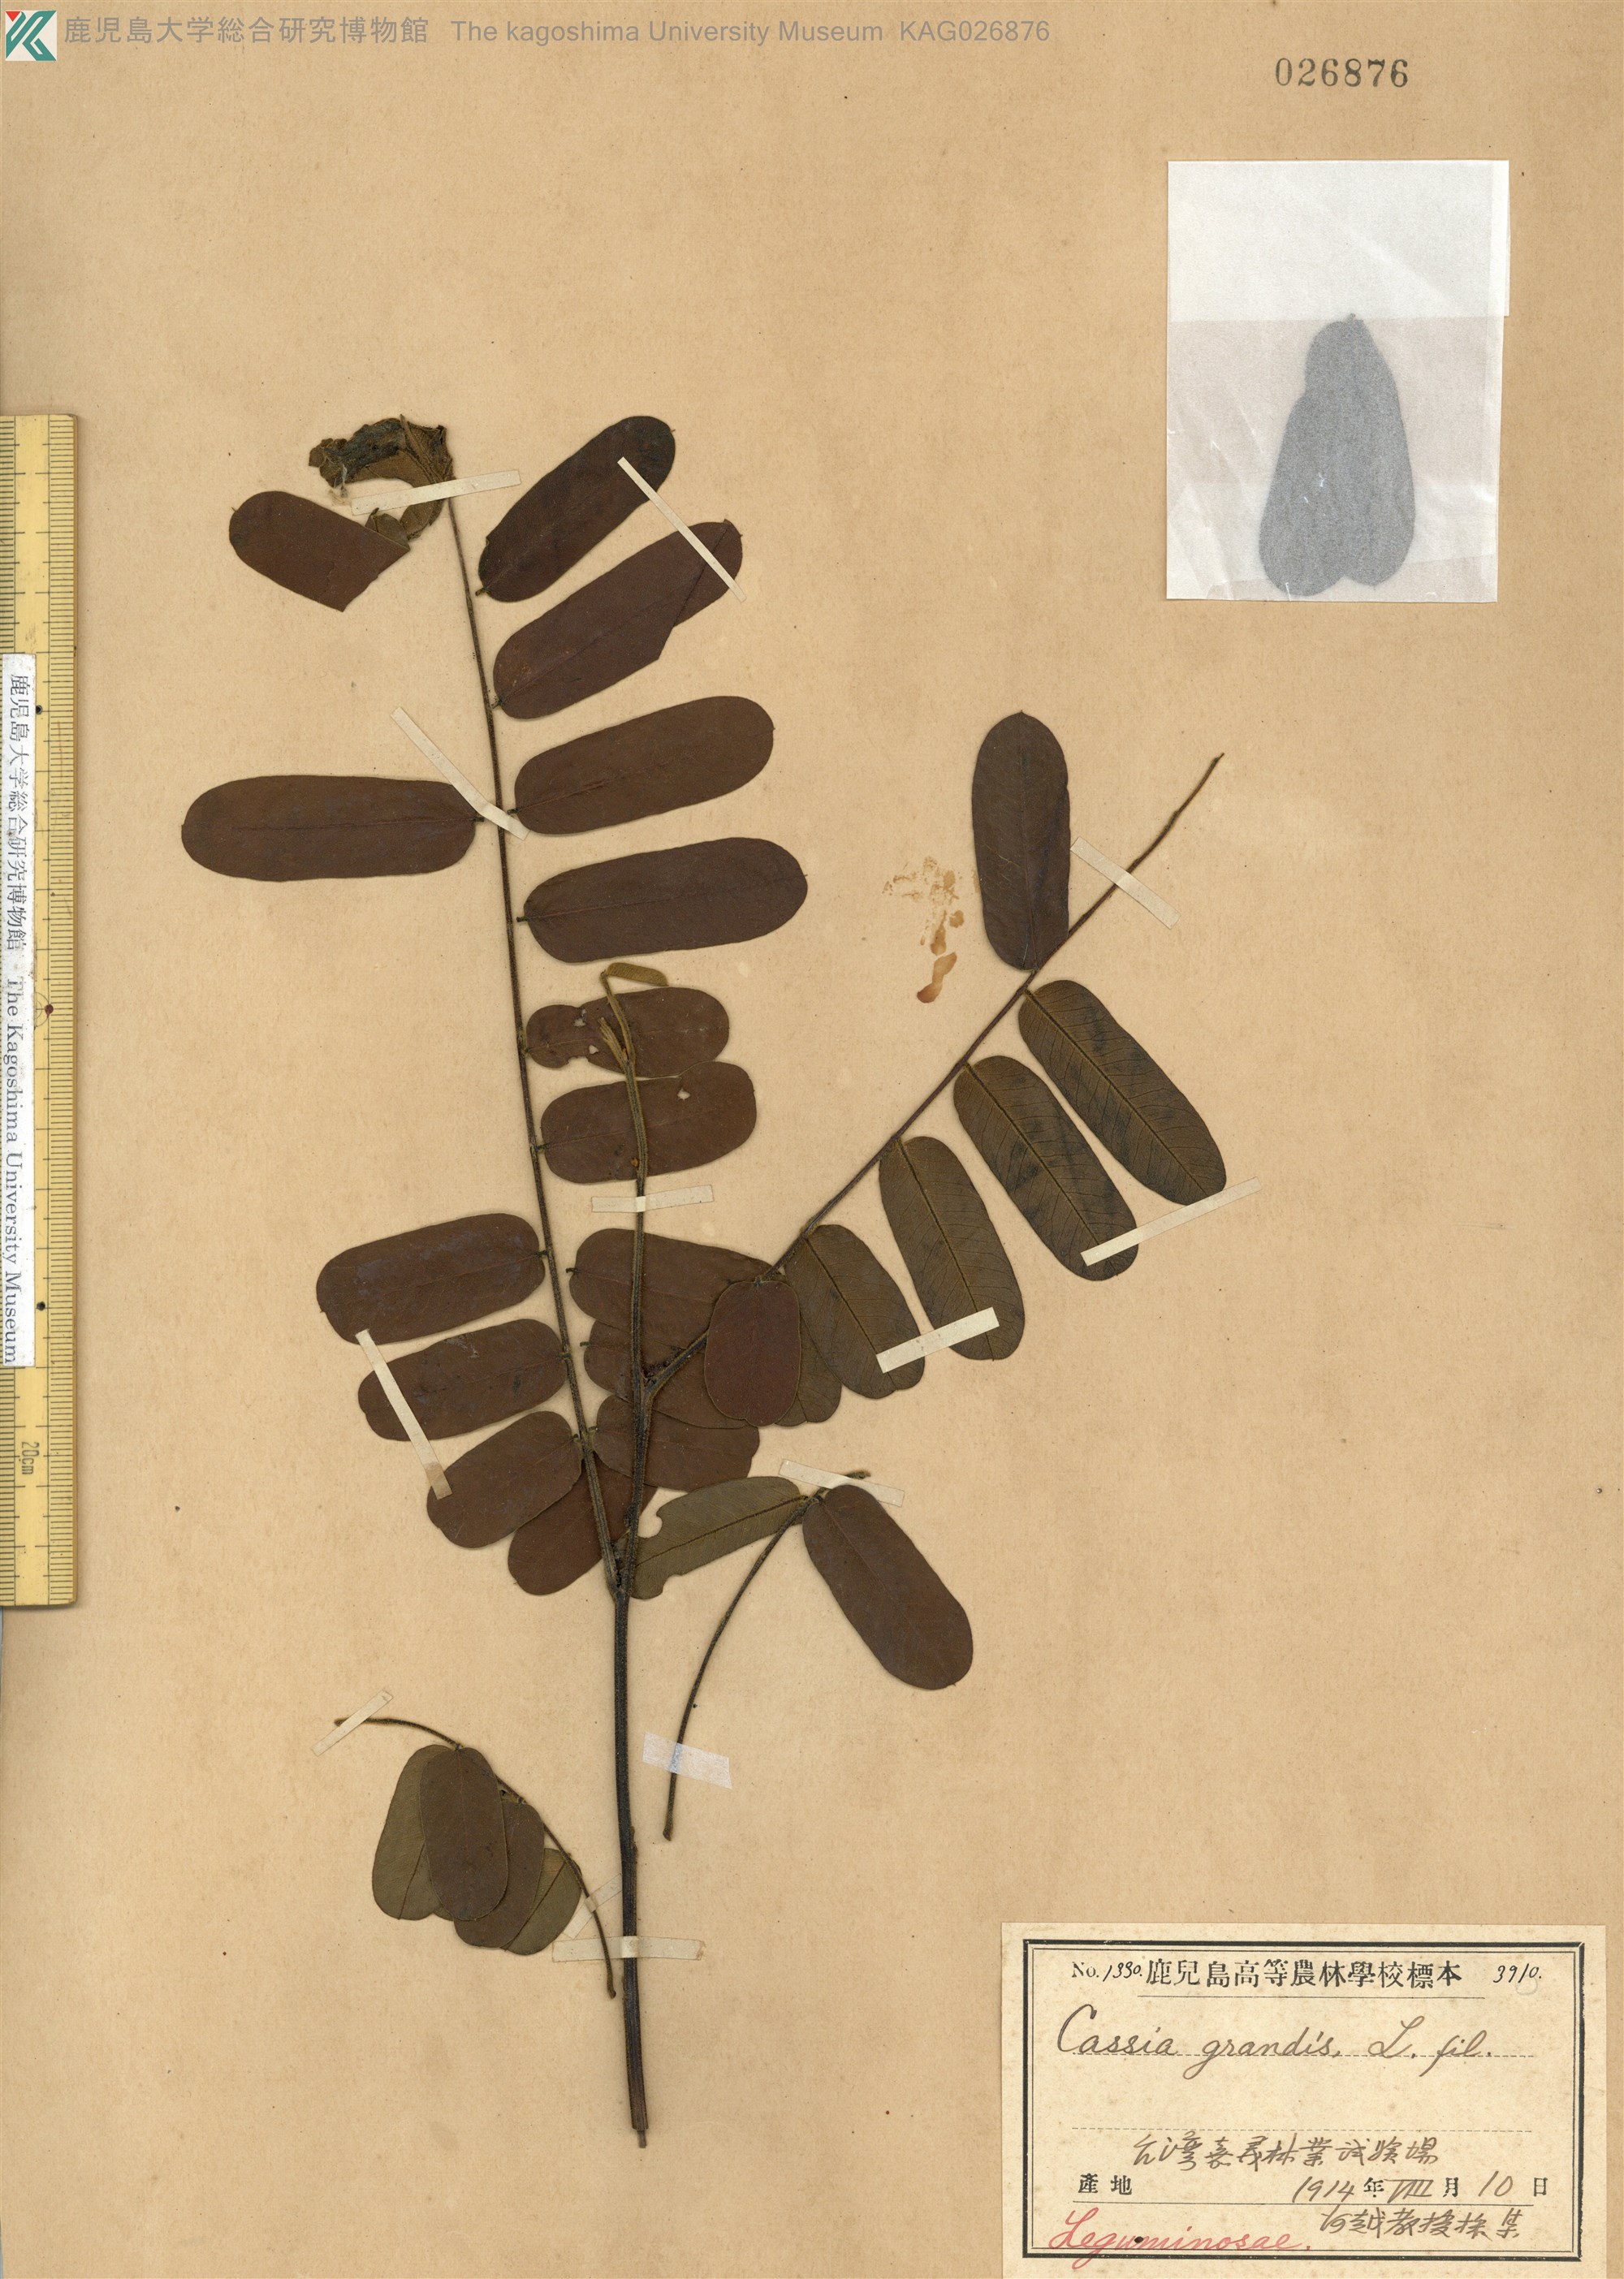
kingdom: Plantae
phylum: Tracheophyta
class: Magnoliopsida
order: Fabales
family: Fabaceae
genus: Cassia
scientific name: Cassia grandis
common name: Appleblossom cassia
